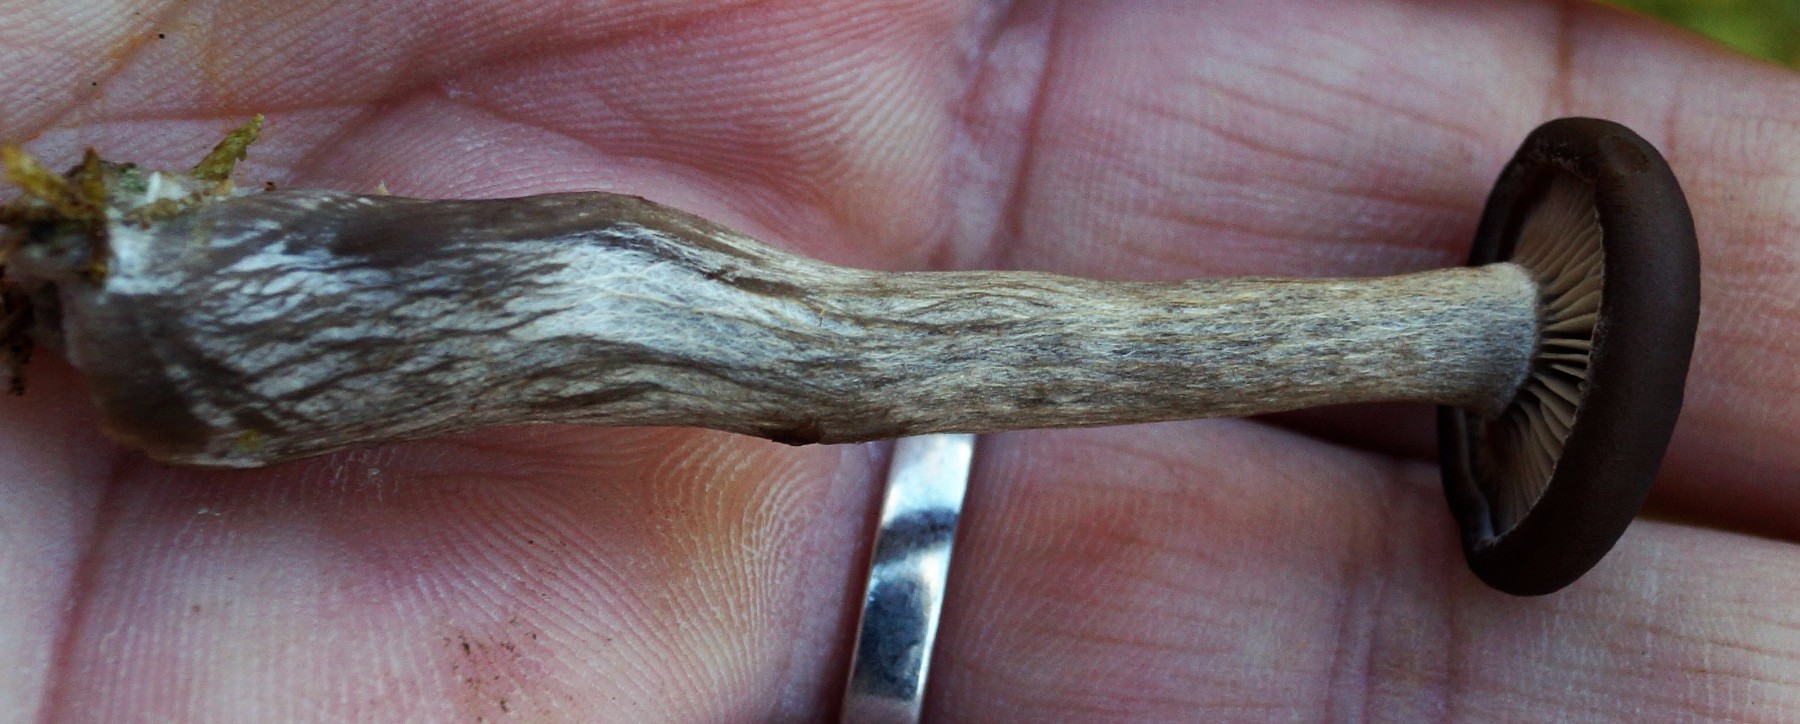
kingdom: Fungi
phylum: Basidiomycota
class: Agaricomycetes
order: Agaricales
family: Pseudoclitocybaceae
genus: Pseudoclitocybe
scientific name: Pseudoclitocybe cyathiformis
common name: almindelig bægertragthat
